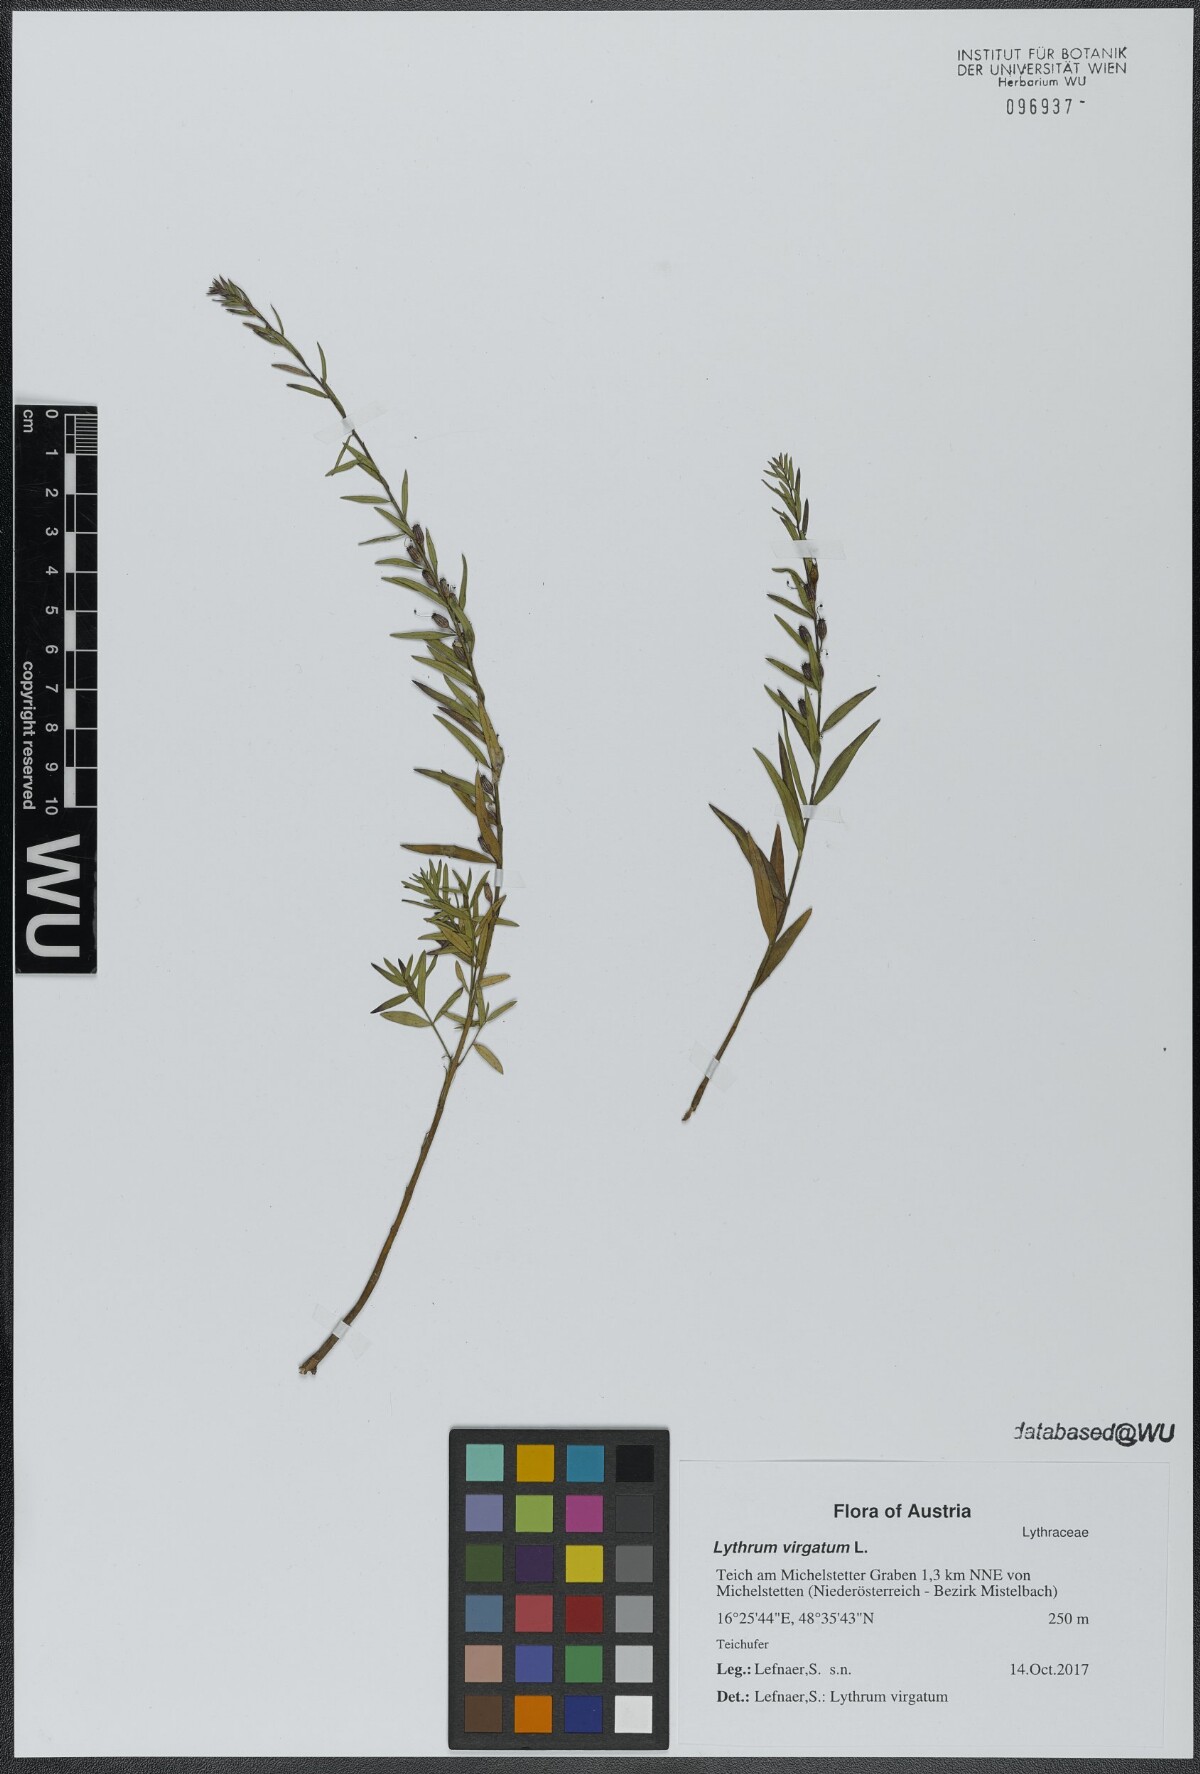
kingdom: Plantae
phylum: Tracheophyta
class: Magnoliopsida
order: Myrtales
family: Lythraceae
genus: Lythrum
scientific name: Lythrum virgatum
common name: European wand loosestrife
